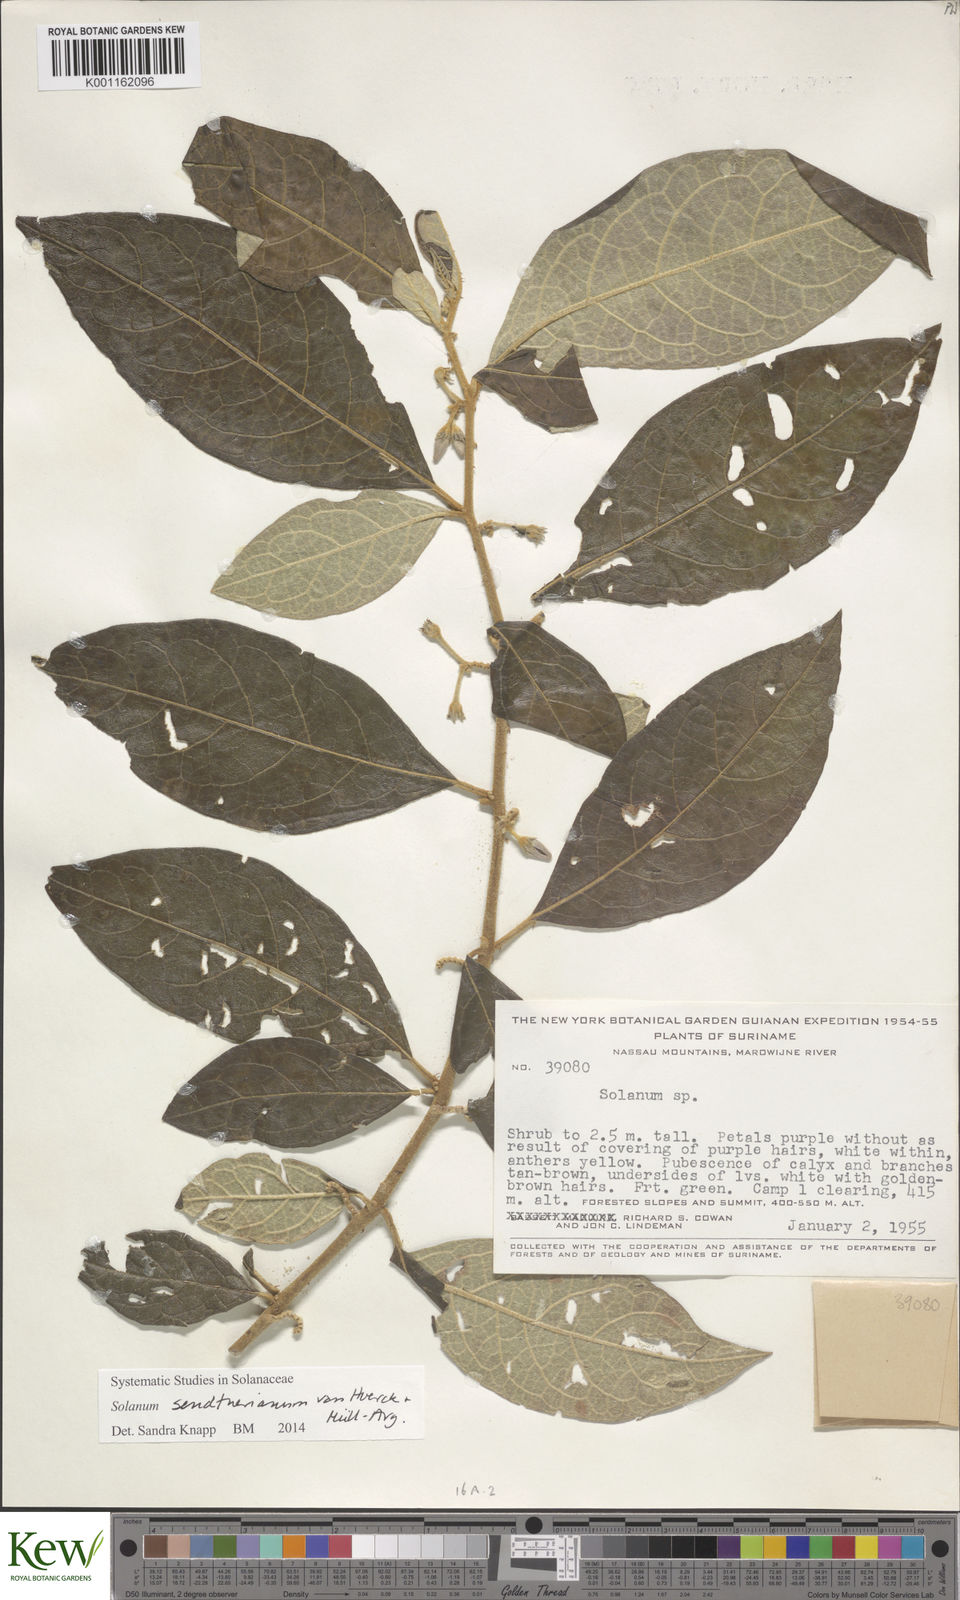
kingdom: Plantae
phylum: Tracheophyta
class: Magnoliopsida
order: Solanales
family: Solanaceae
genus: Solanum
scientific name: Solanum
